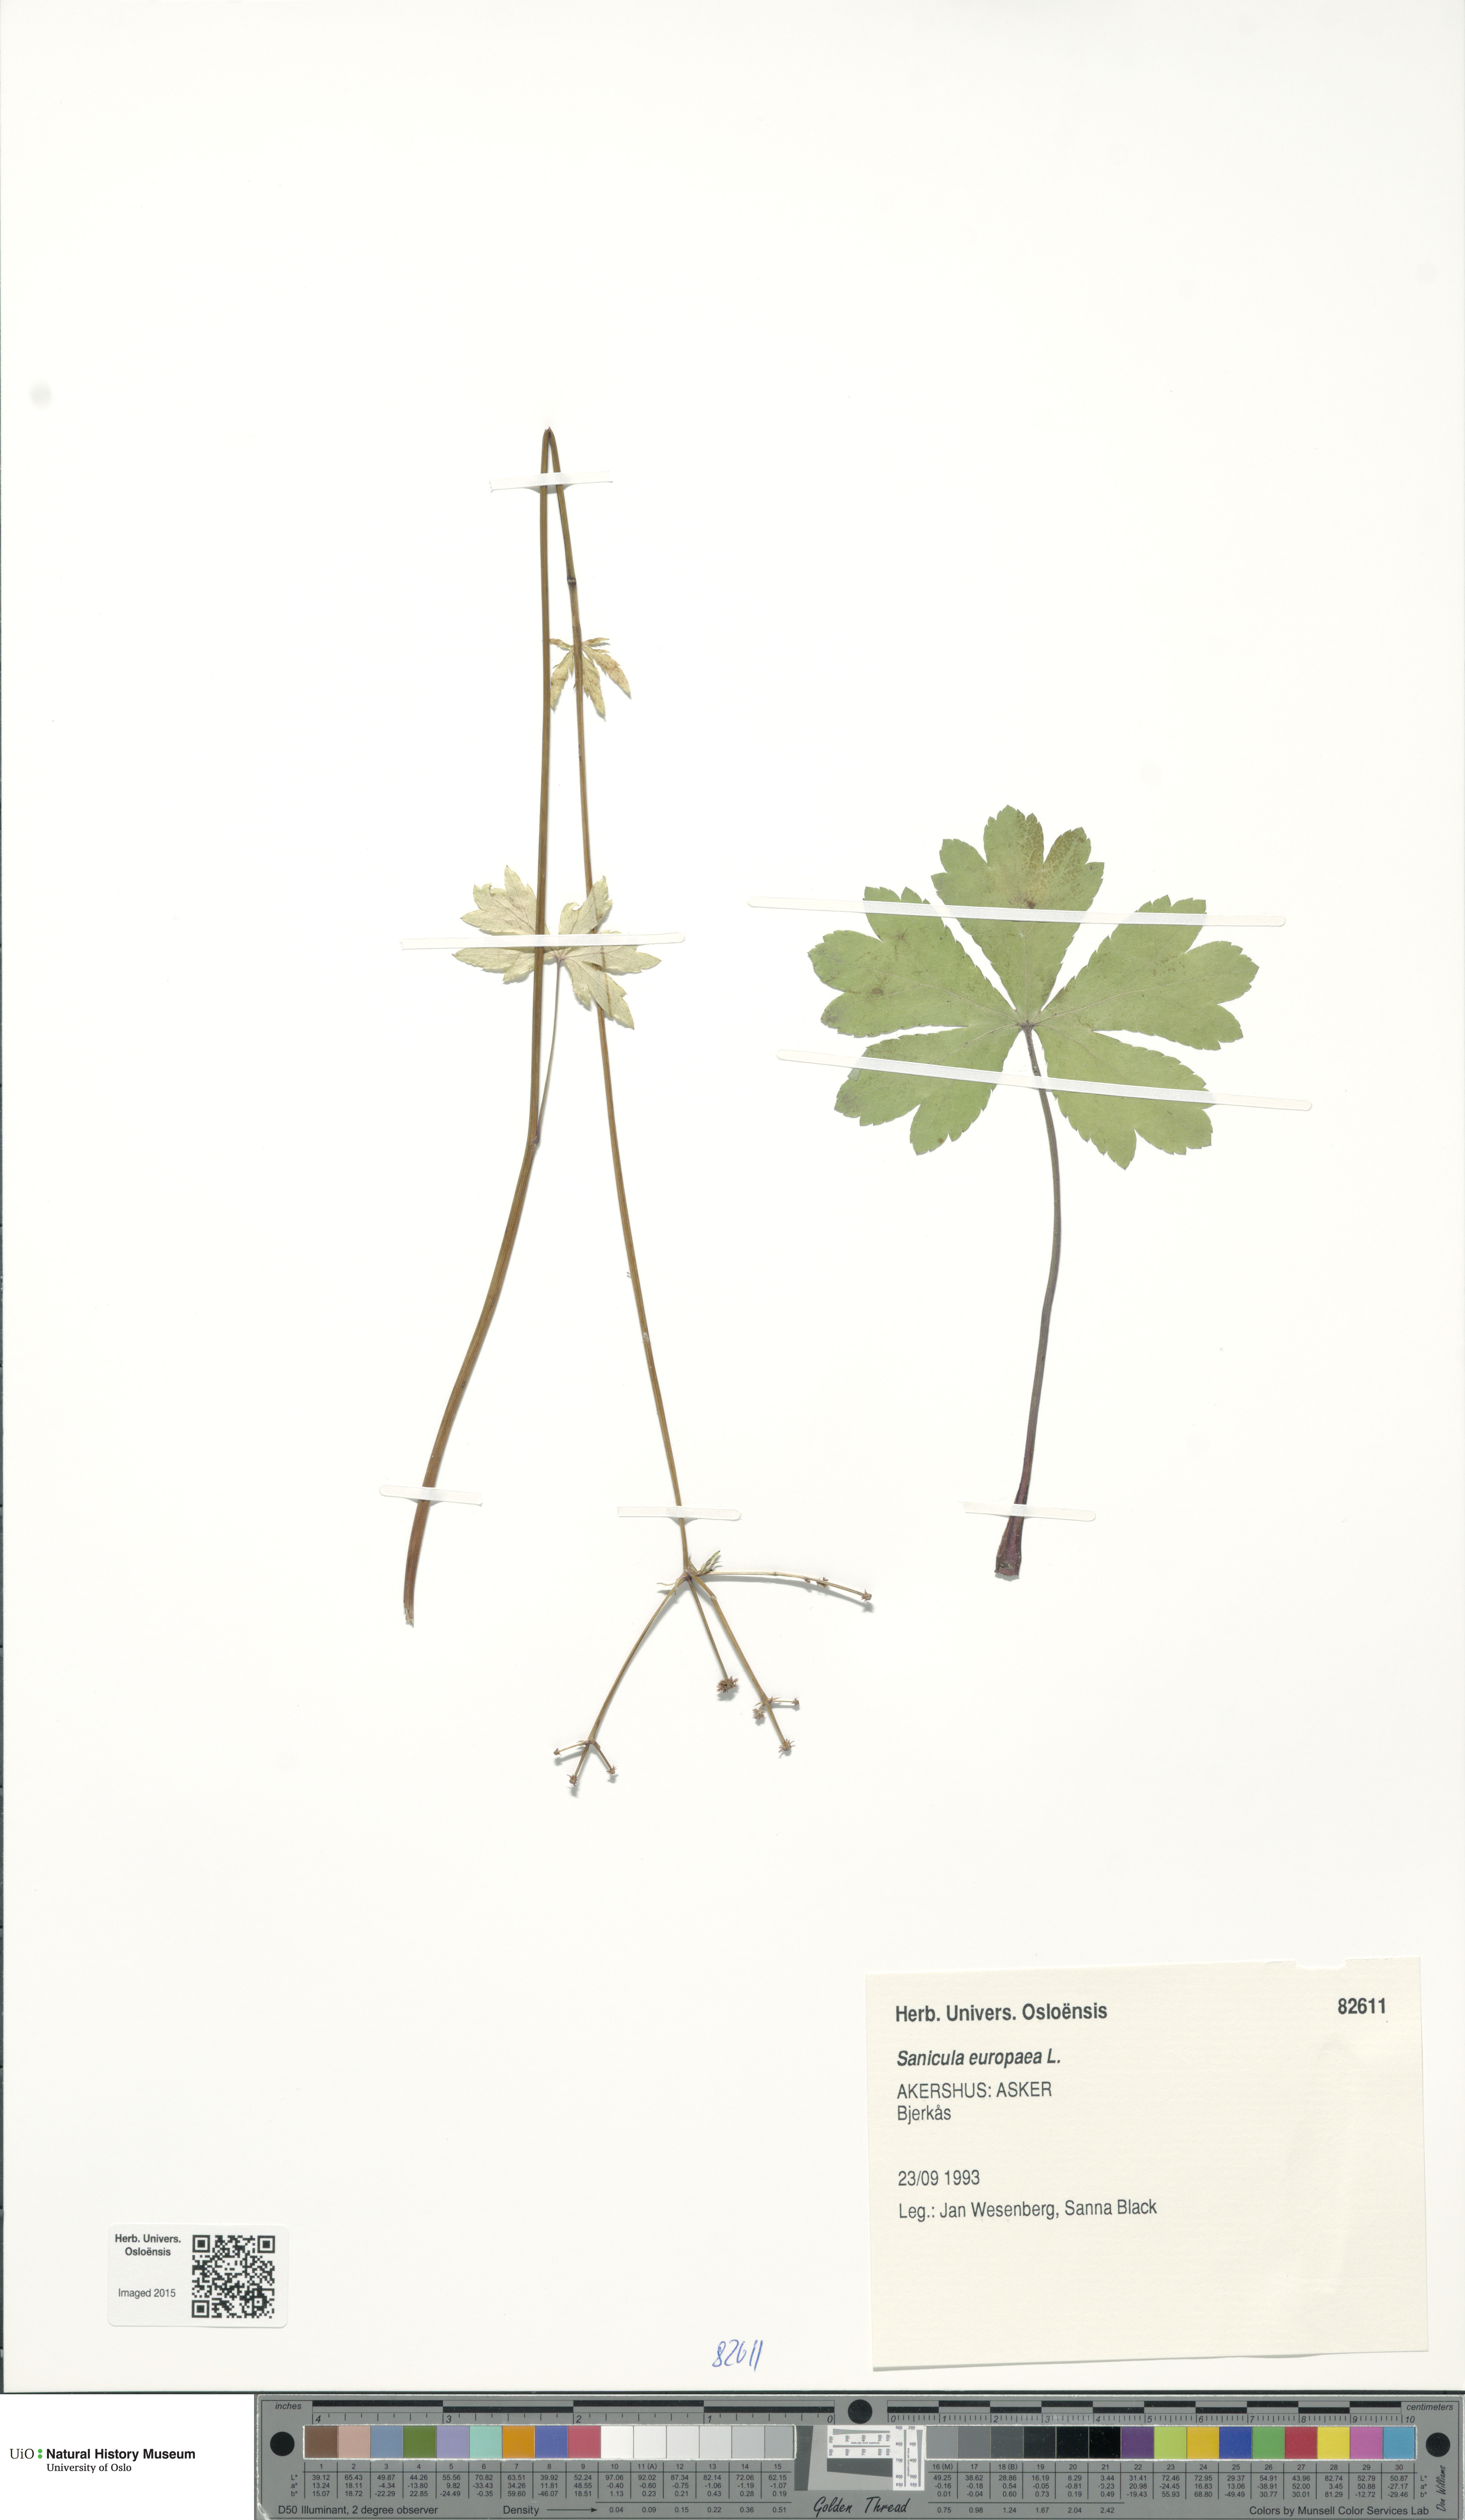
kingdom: Plantae
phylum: Tracheophyta
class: Magnoliopsida
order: Apiales
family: Apiaceae
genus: Sanicula
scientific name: Sanicula europaea
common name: Sanicle
